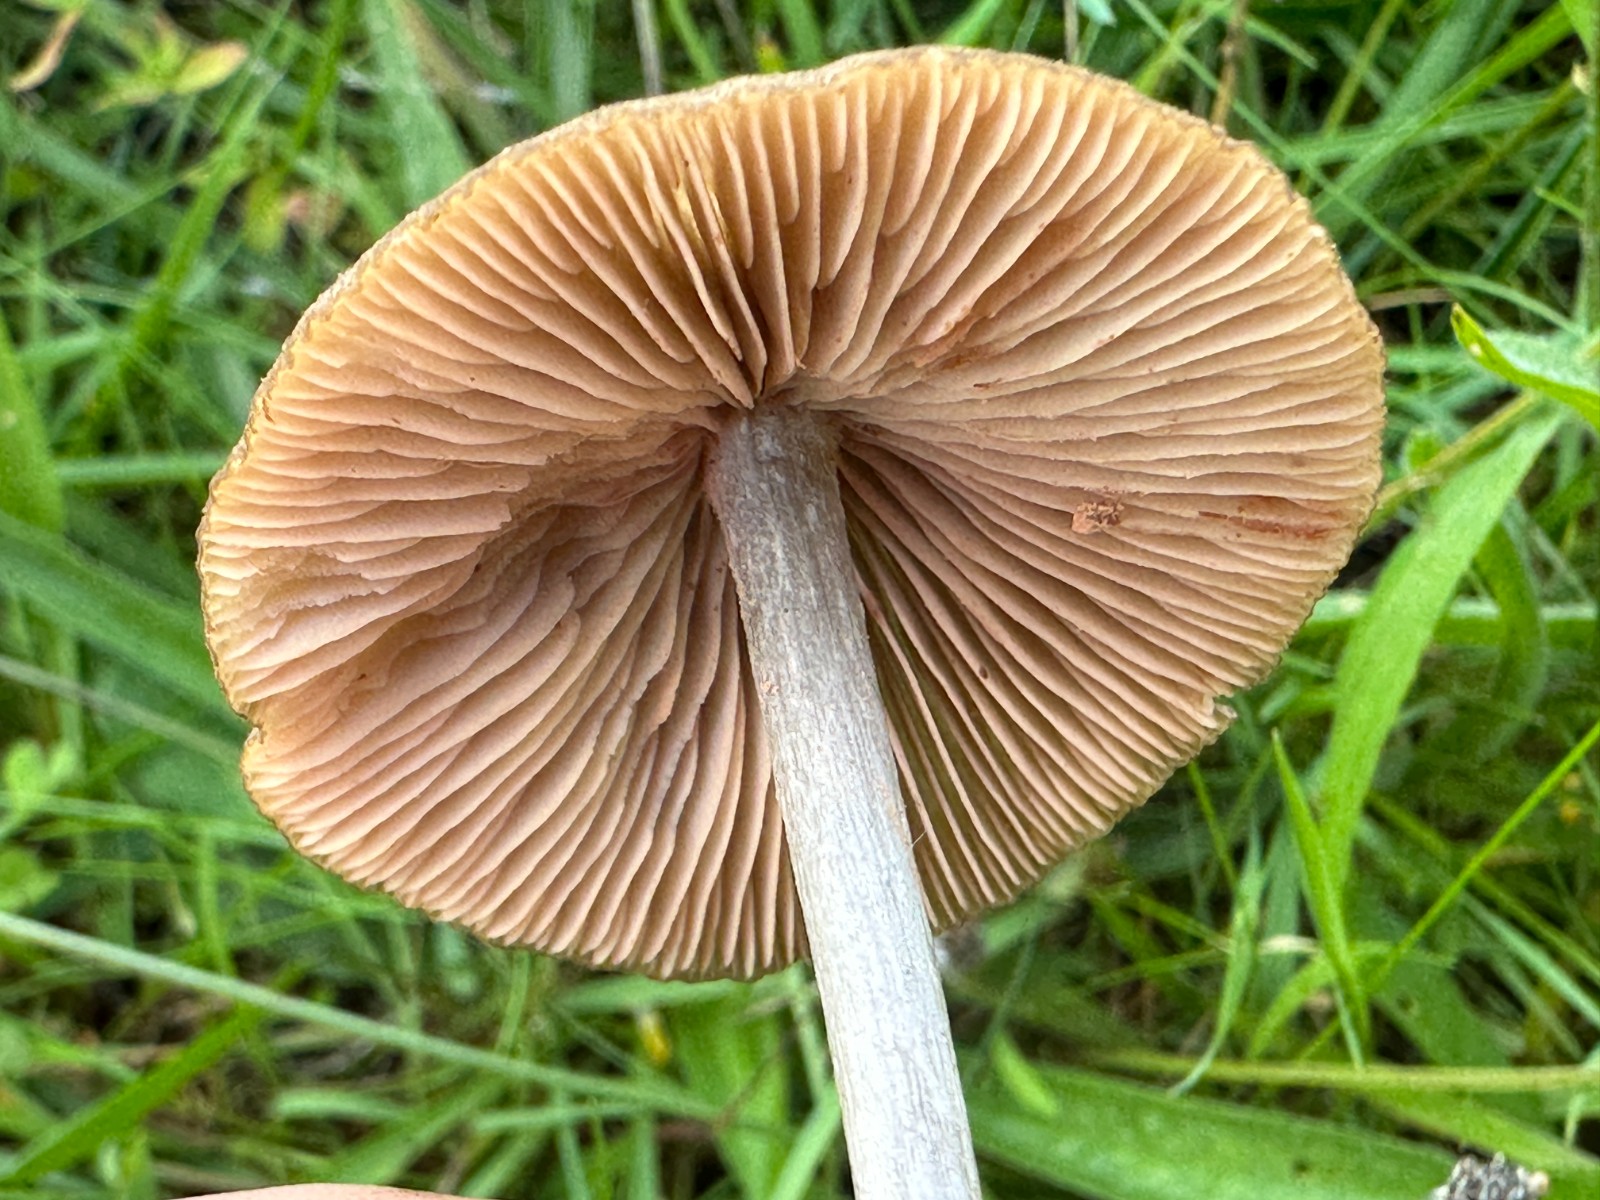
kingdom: Fungi
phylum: Basidiomycota
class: Agaricomycetes
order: Agaricales
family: Entolomataceae
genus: Entoloma
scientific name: Entoloma griseocyaneum
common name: gråblå rødblad
